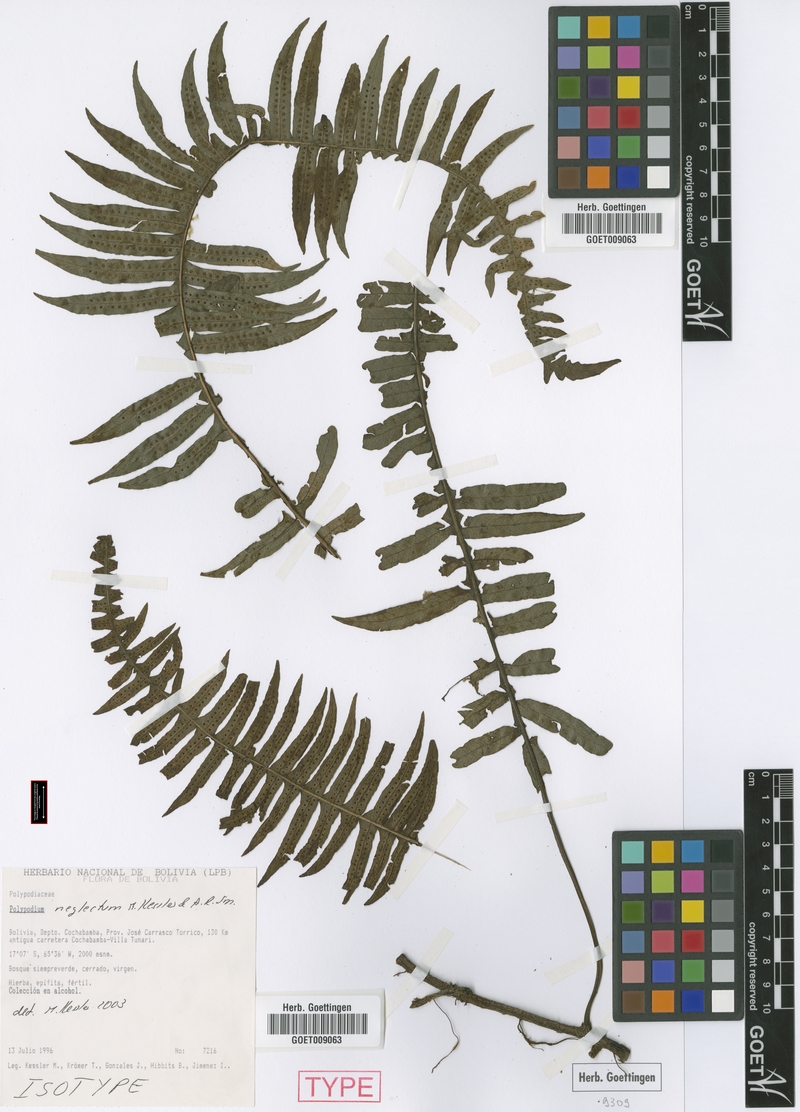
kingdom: Plantae
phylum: Tracheophyta
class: Magnoliopsida
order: Ericales
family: Ericaceae
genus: Vaccinium
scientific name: Vaccinium stamineum
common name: Deerberry
